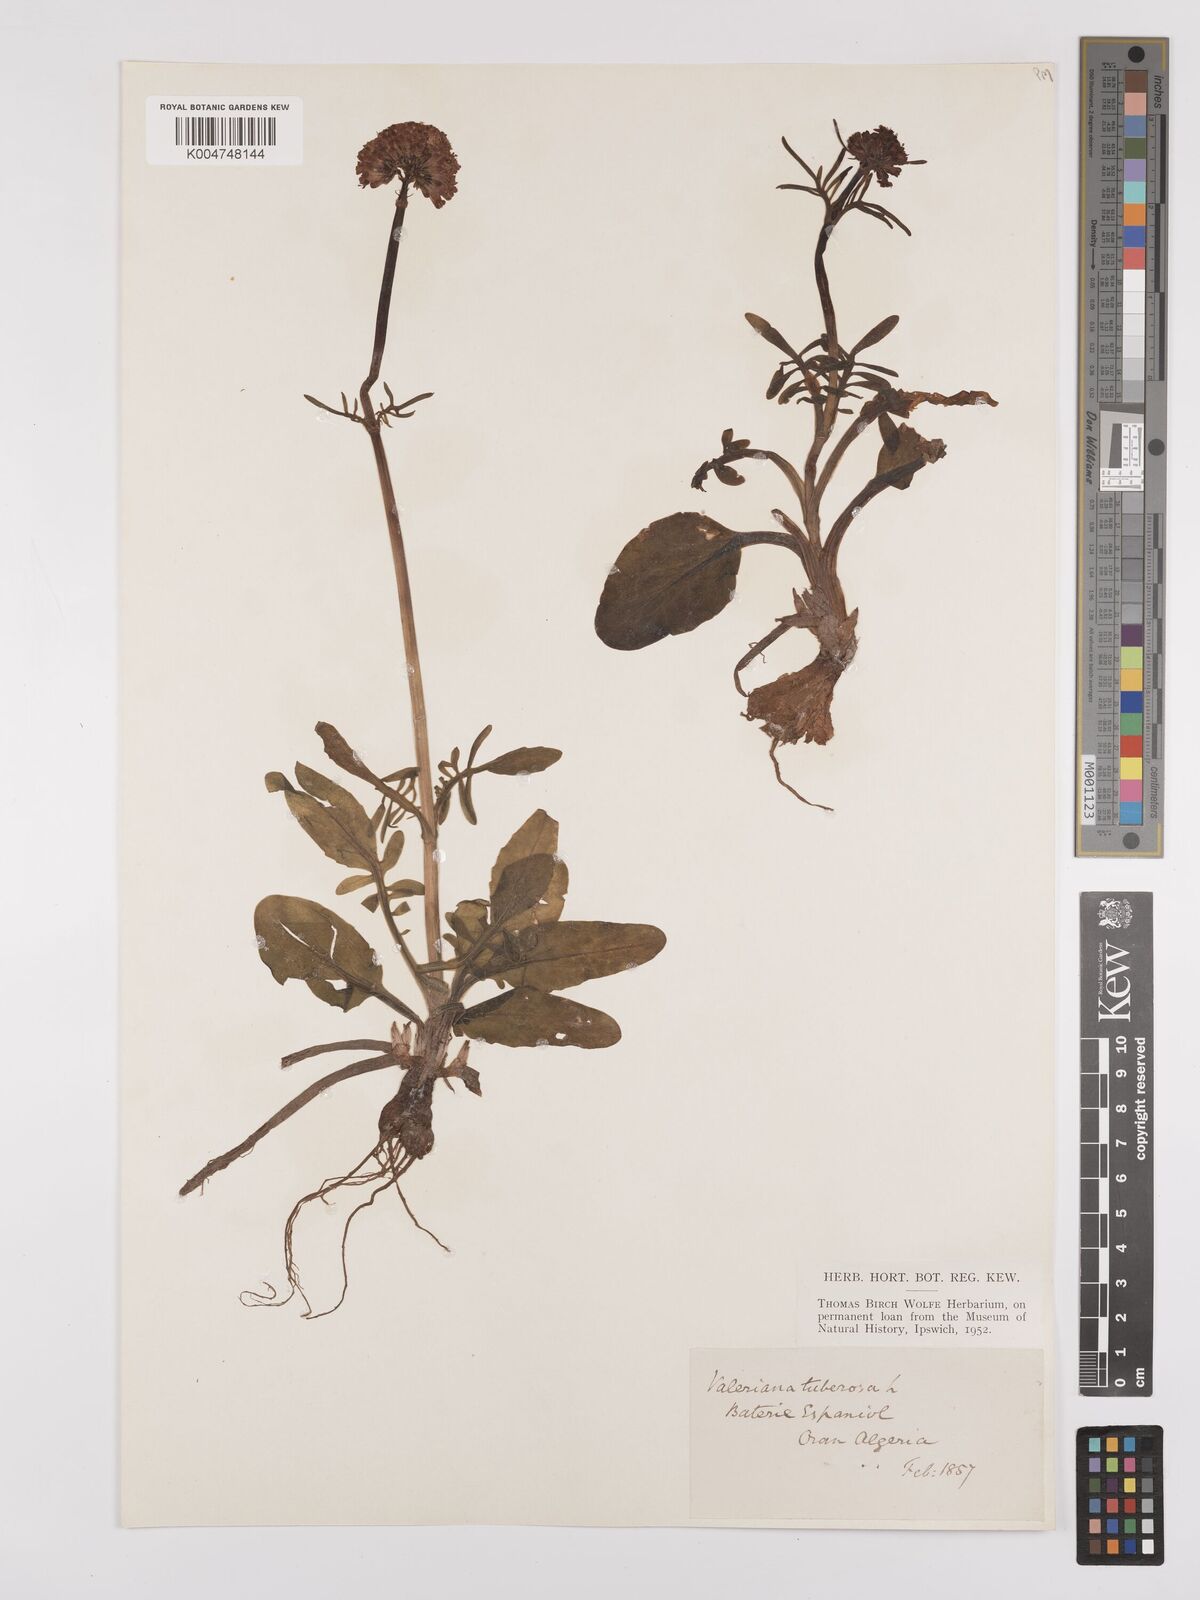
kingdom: Plantae
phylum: Tracheophyta
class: Magnoliopsida
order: Dipsacales
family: Caprifoliaceae
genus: Valeriana
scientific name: Valeriana tuberosa
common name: Tuberous valerian
